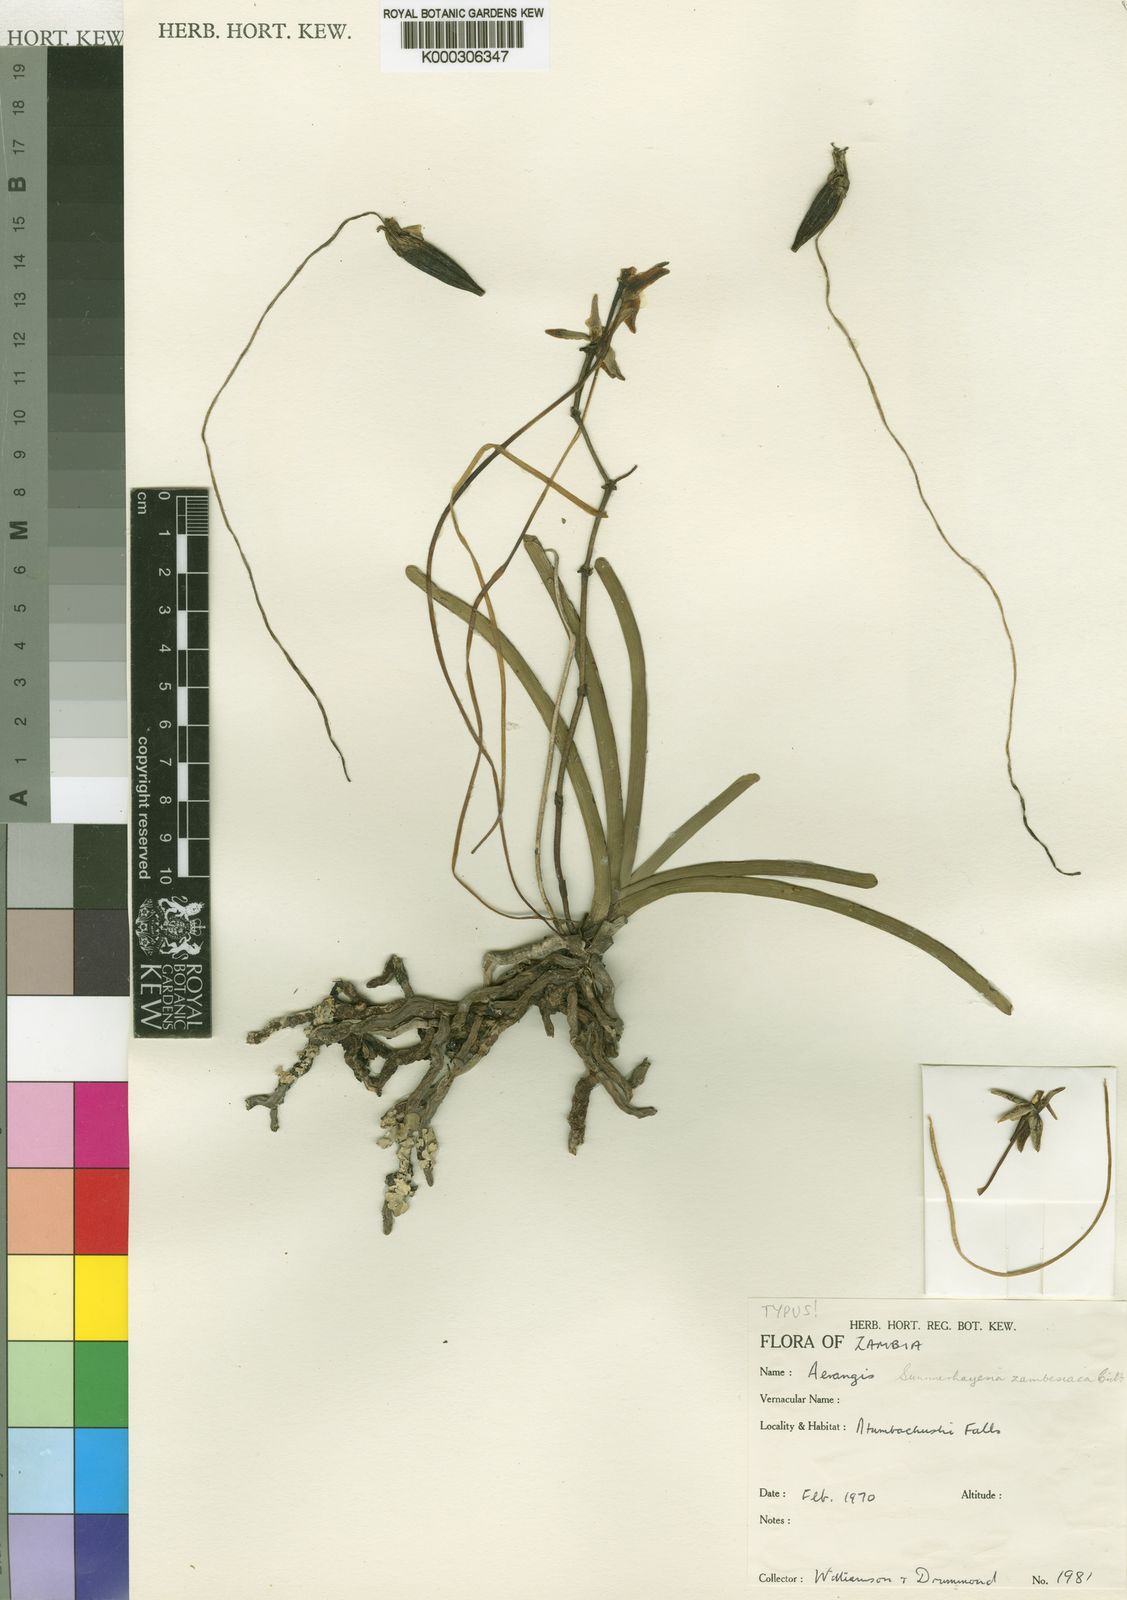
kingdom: Plantae
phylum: Tracheophyta
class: Liliopsida
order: Asparagales
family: Orchidaceae
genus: Summerhayesia
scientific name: Summerhayesia zambesiaca
